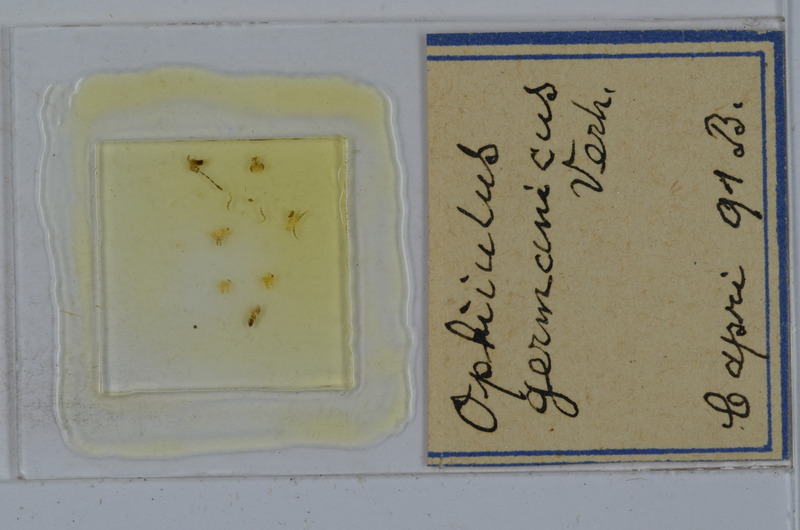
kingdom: Animalia
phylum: Arthropoda
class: Diplopoda
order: Julida
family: Julidae
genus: Ophyiulus
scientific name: Ophyiulus germanicus
